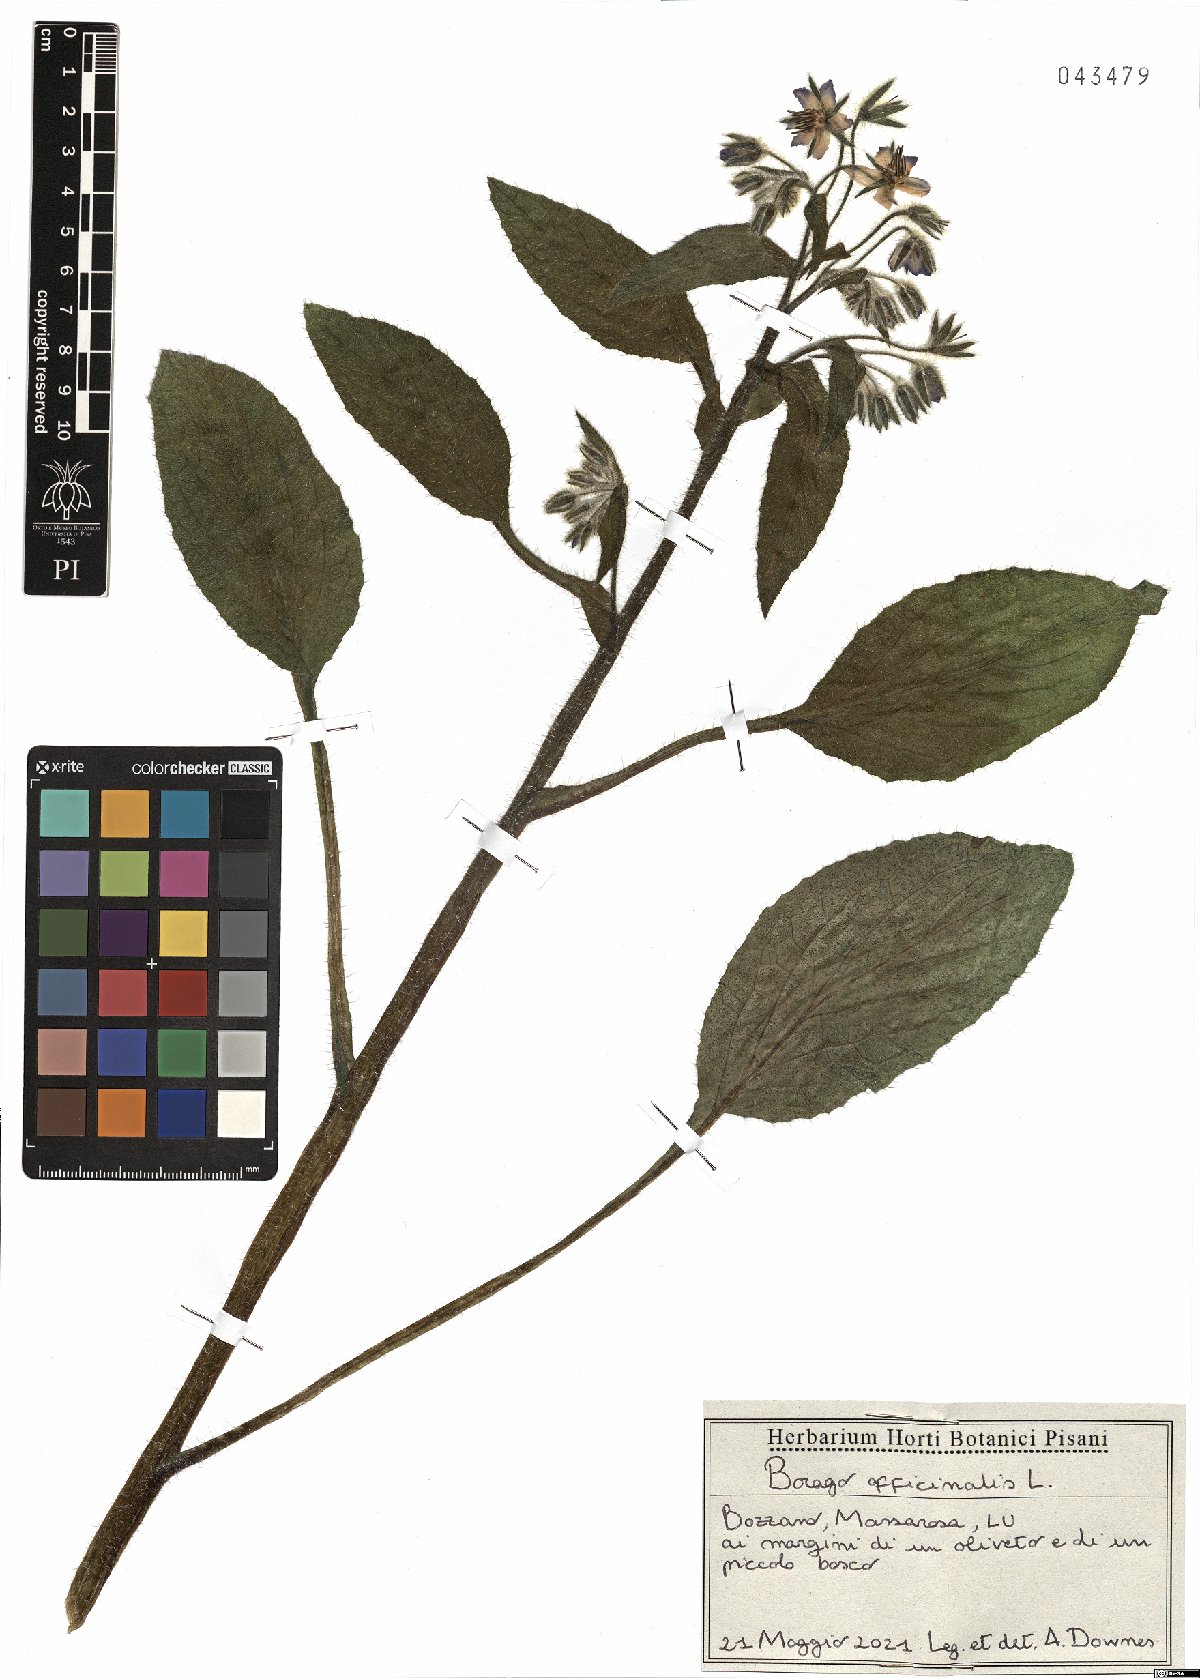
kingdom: Plantae
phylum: Tracheophyta
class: Magnoliopsida
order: Boraginales
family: Boraginaceae
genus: Borago
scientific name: Borago officinalis
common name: Borage
